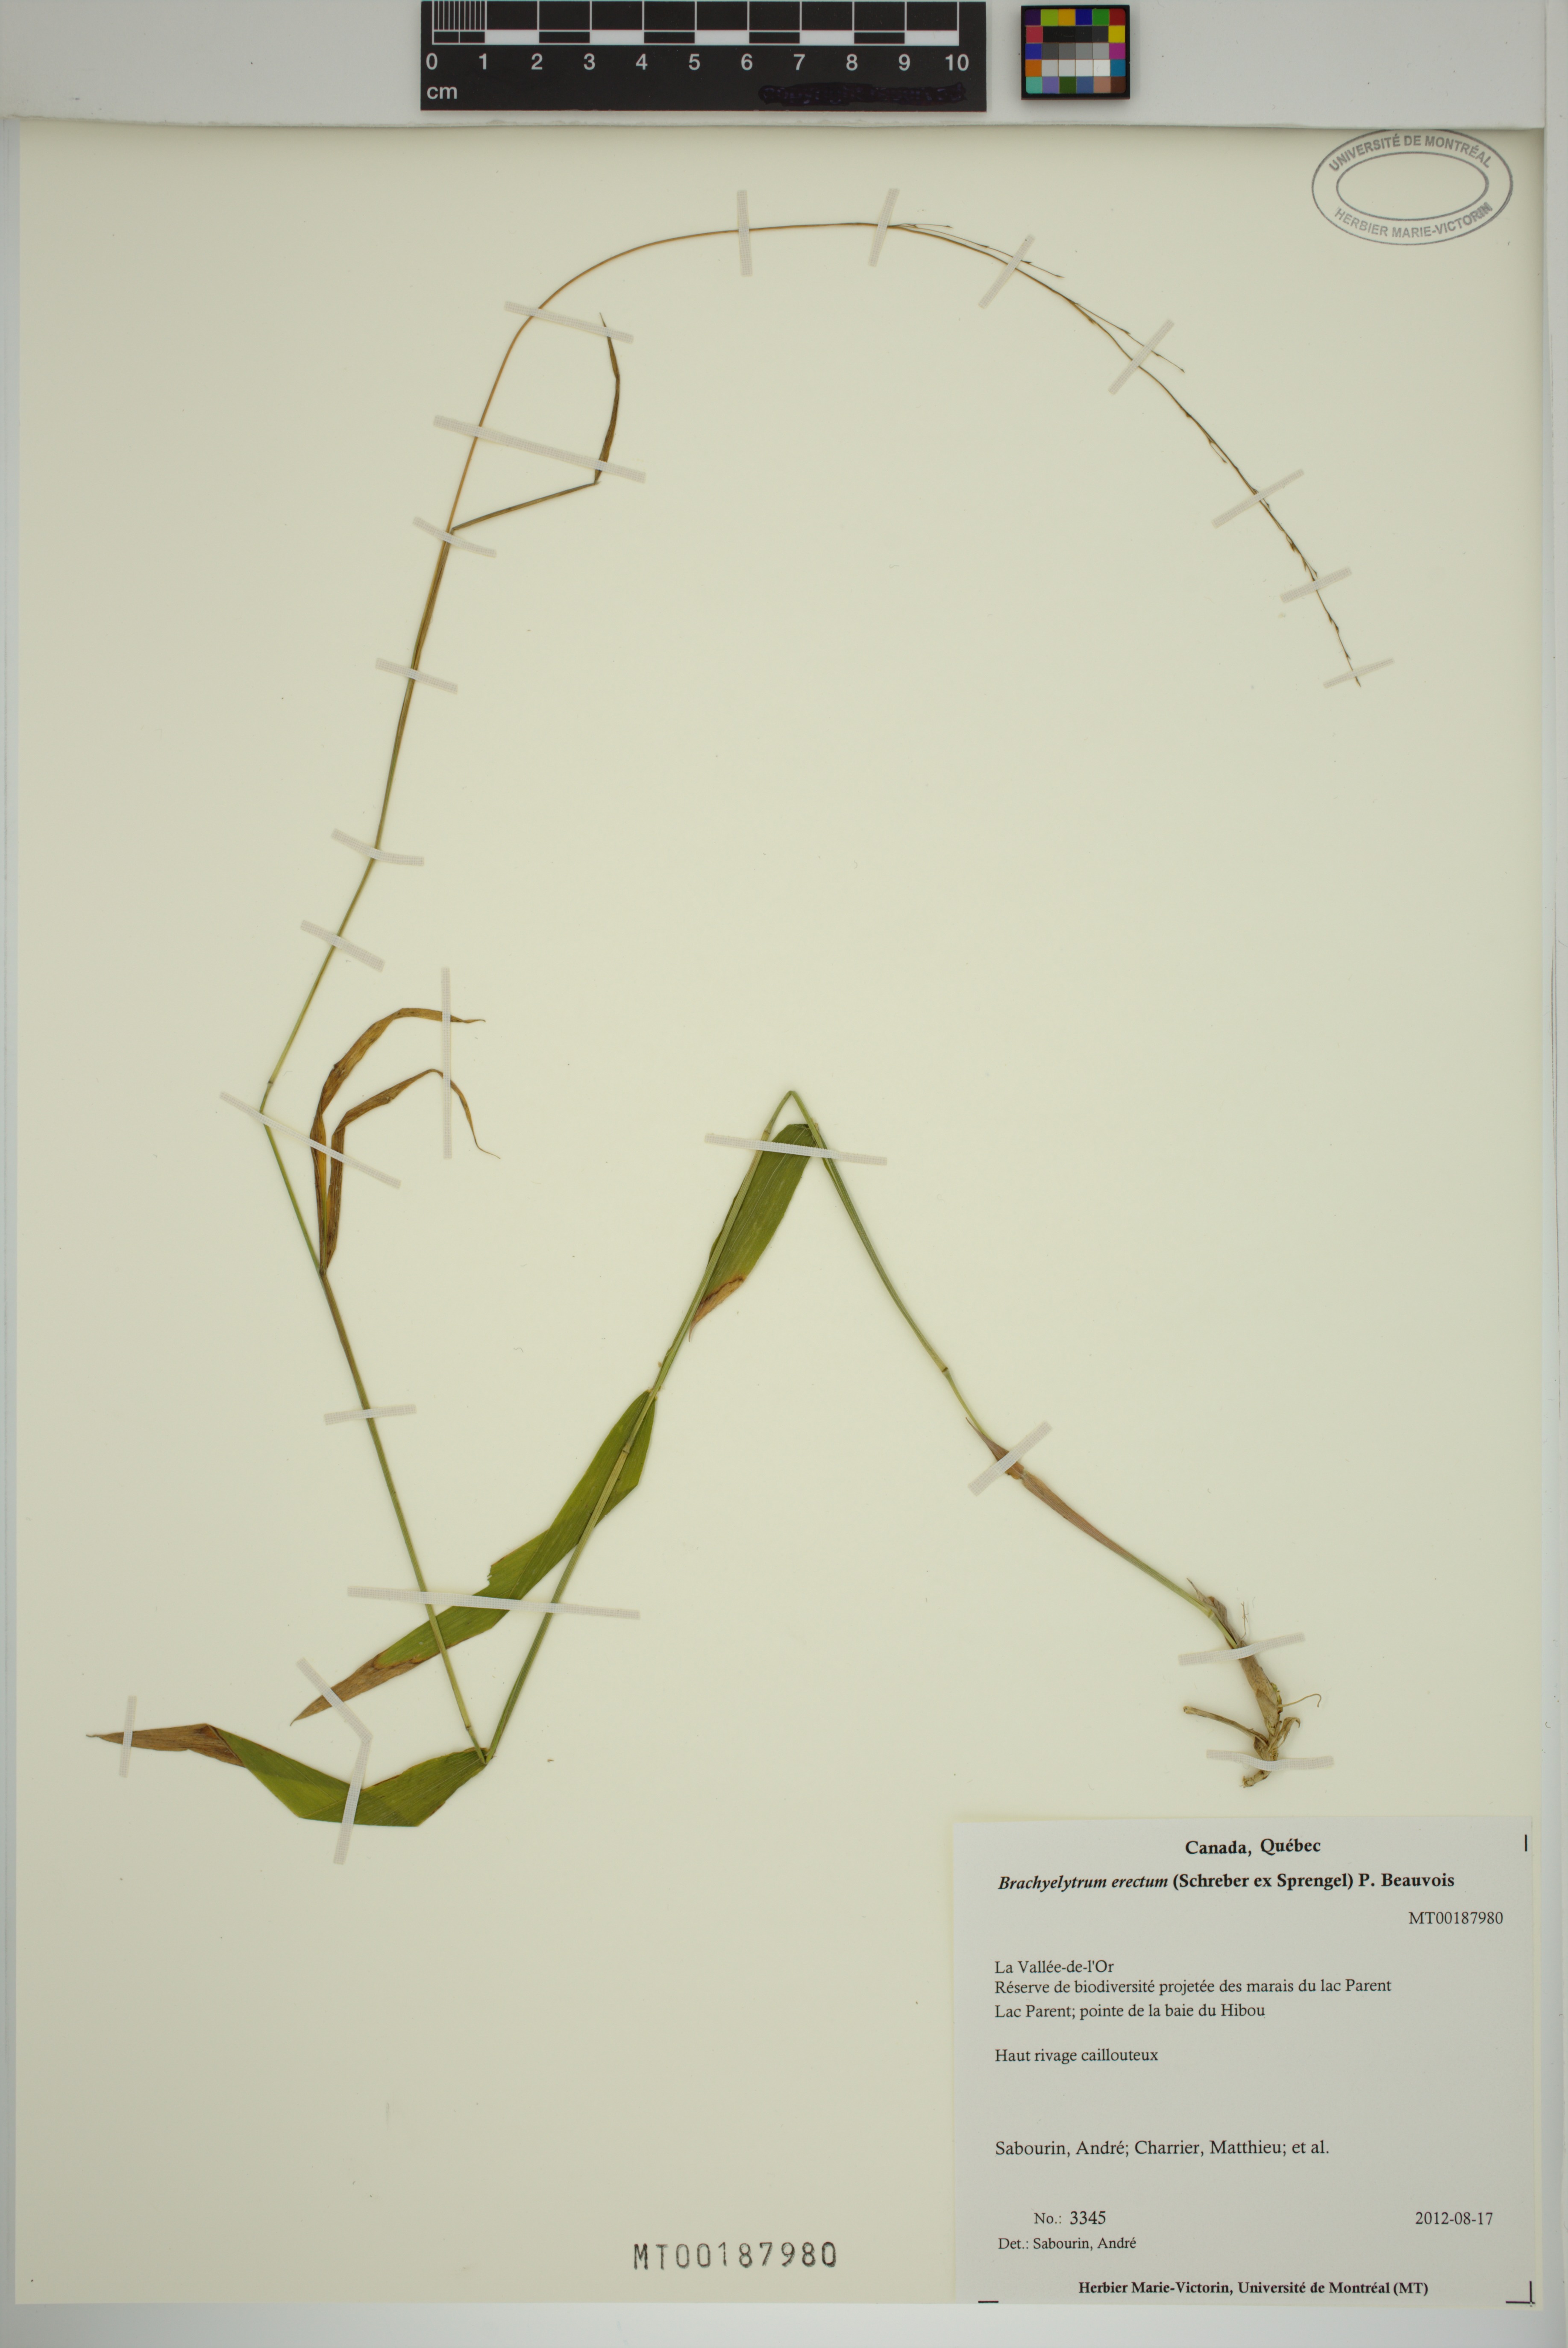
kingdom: Plantae
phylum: Tracheophyta
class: Liliopsida
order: Poales
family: Poaceae
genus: Brachyelytrum
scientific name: Brachyelytrum erectum
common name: Bearded shorthusk
